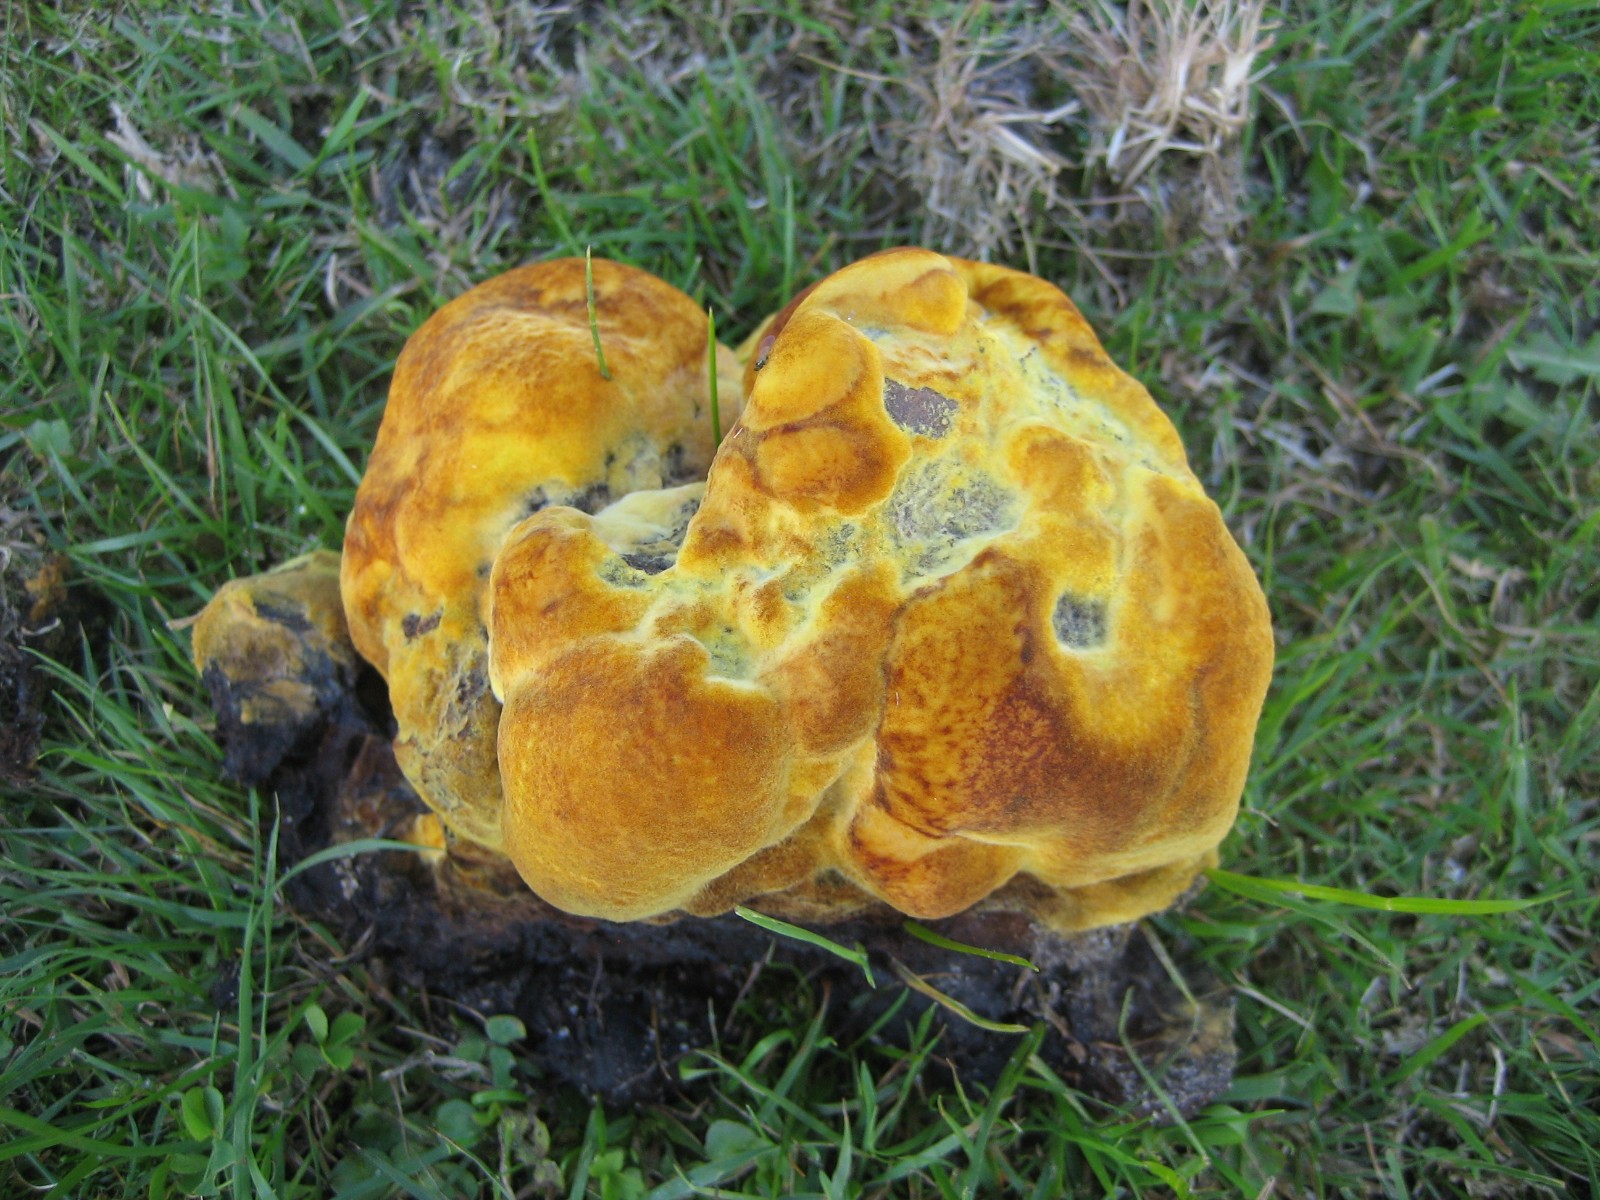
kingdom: Fungi
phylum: Basidiomycota
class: Agaricomycetes
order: Polyporales
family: Laetiporaceae
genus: Phaeolus
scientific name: Phaeolus schweinitzii
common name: brunporesvamp
